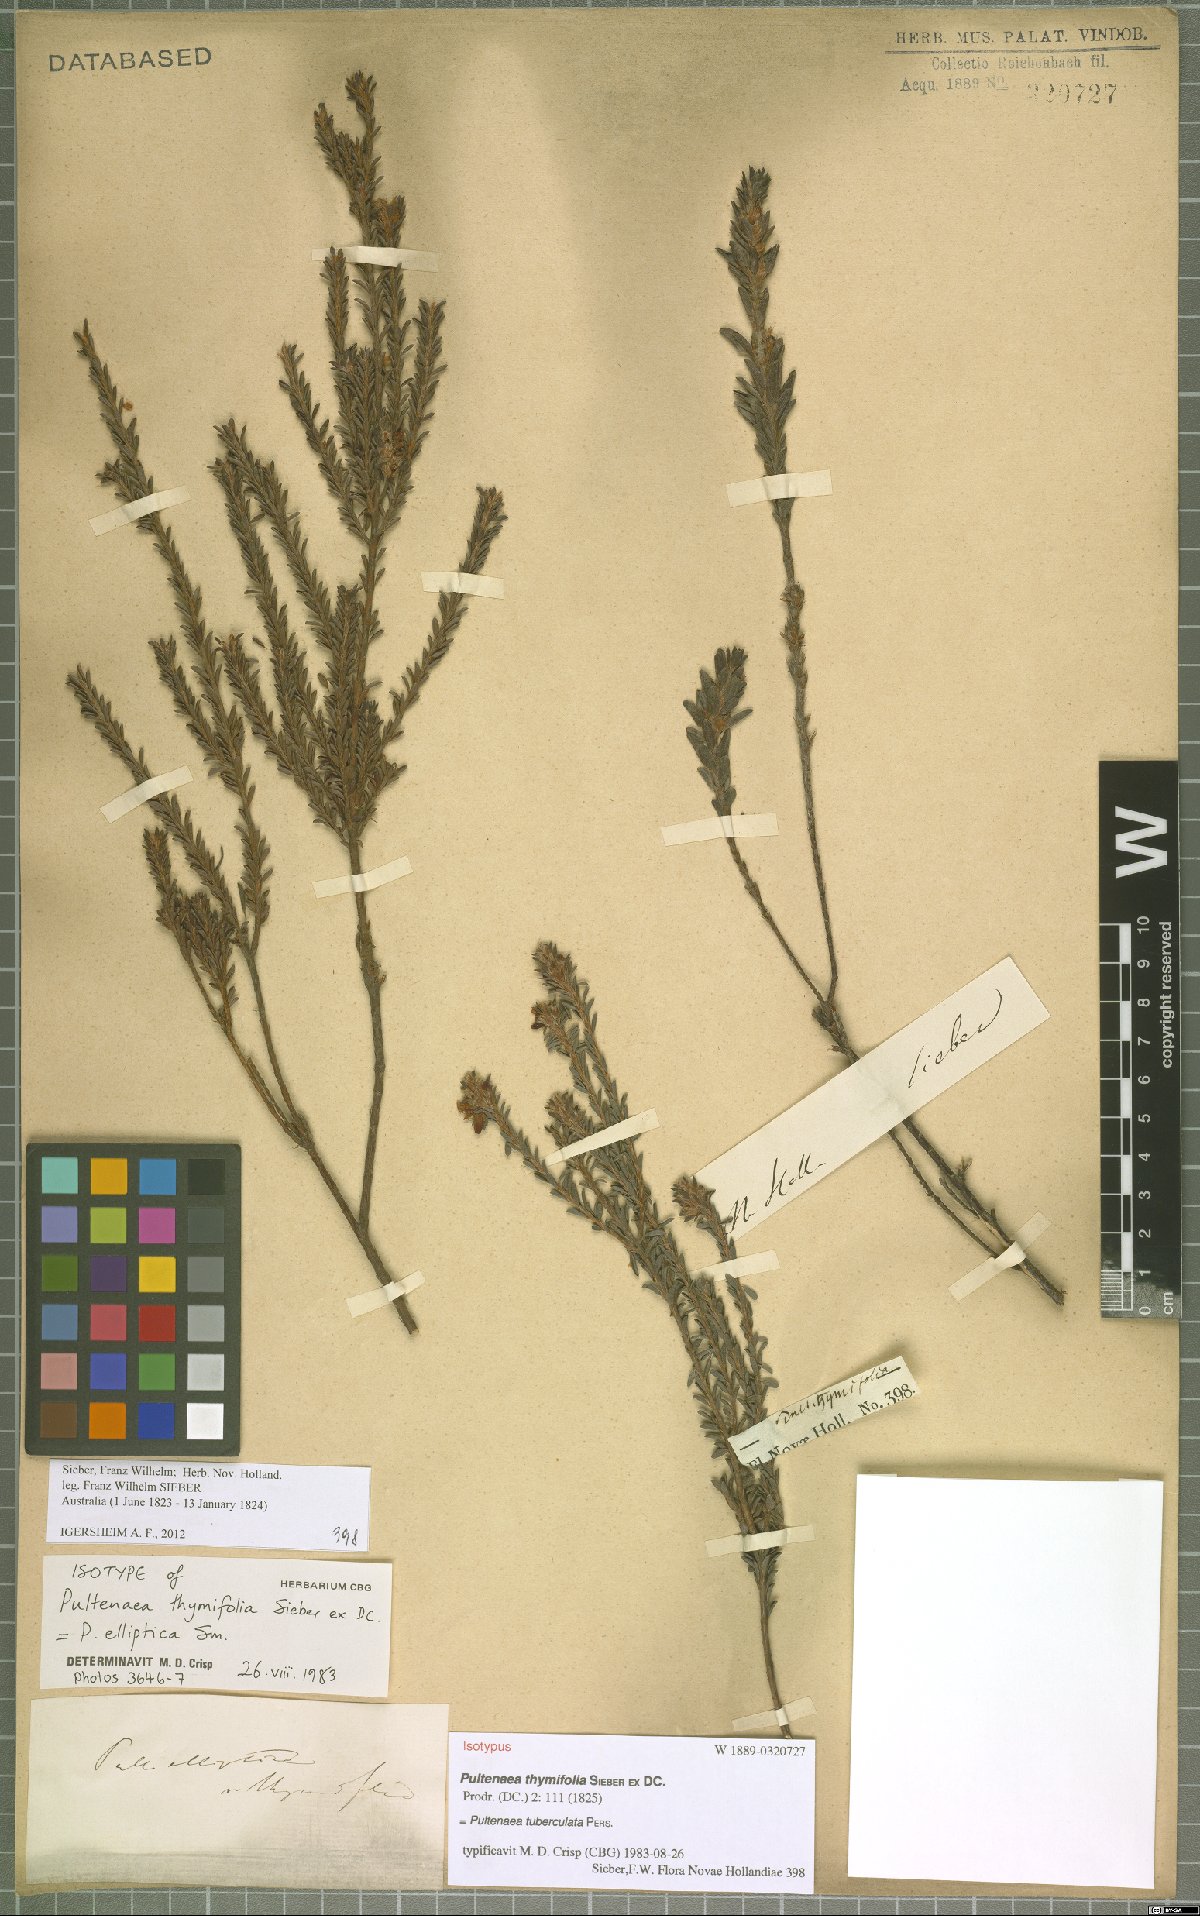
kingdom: Plantae
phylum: Tracheophyta
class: Magnoliopsida
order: Fabales
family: Fabaceae
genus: Pultenaea
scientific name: Pultenaea tuberculata
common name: Wreath bush-pea
